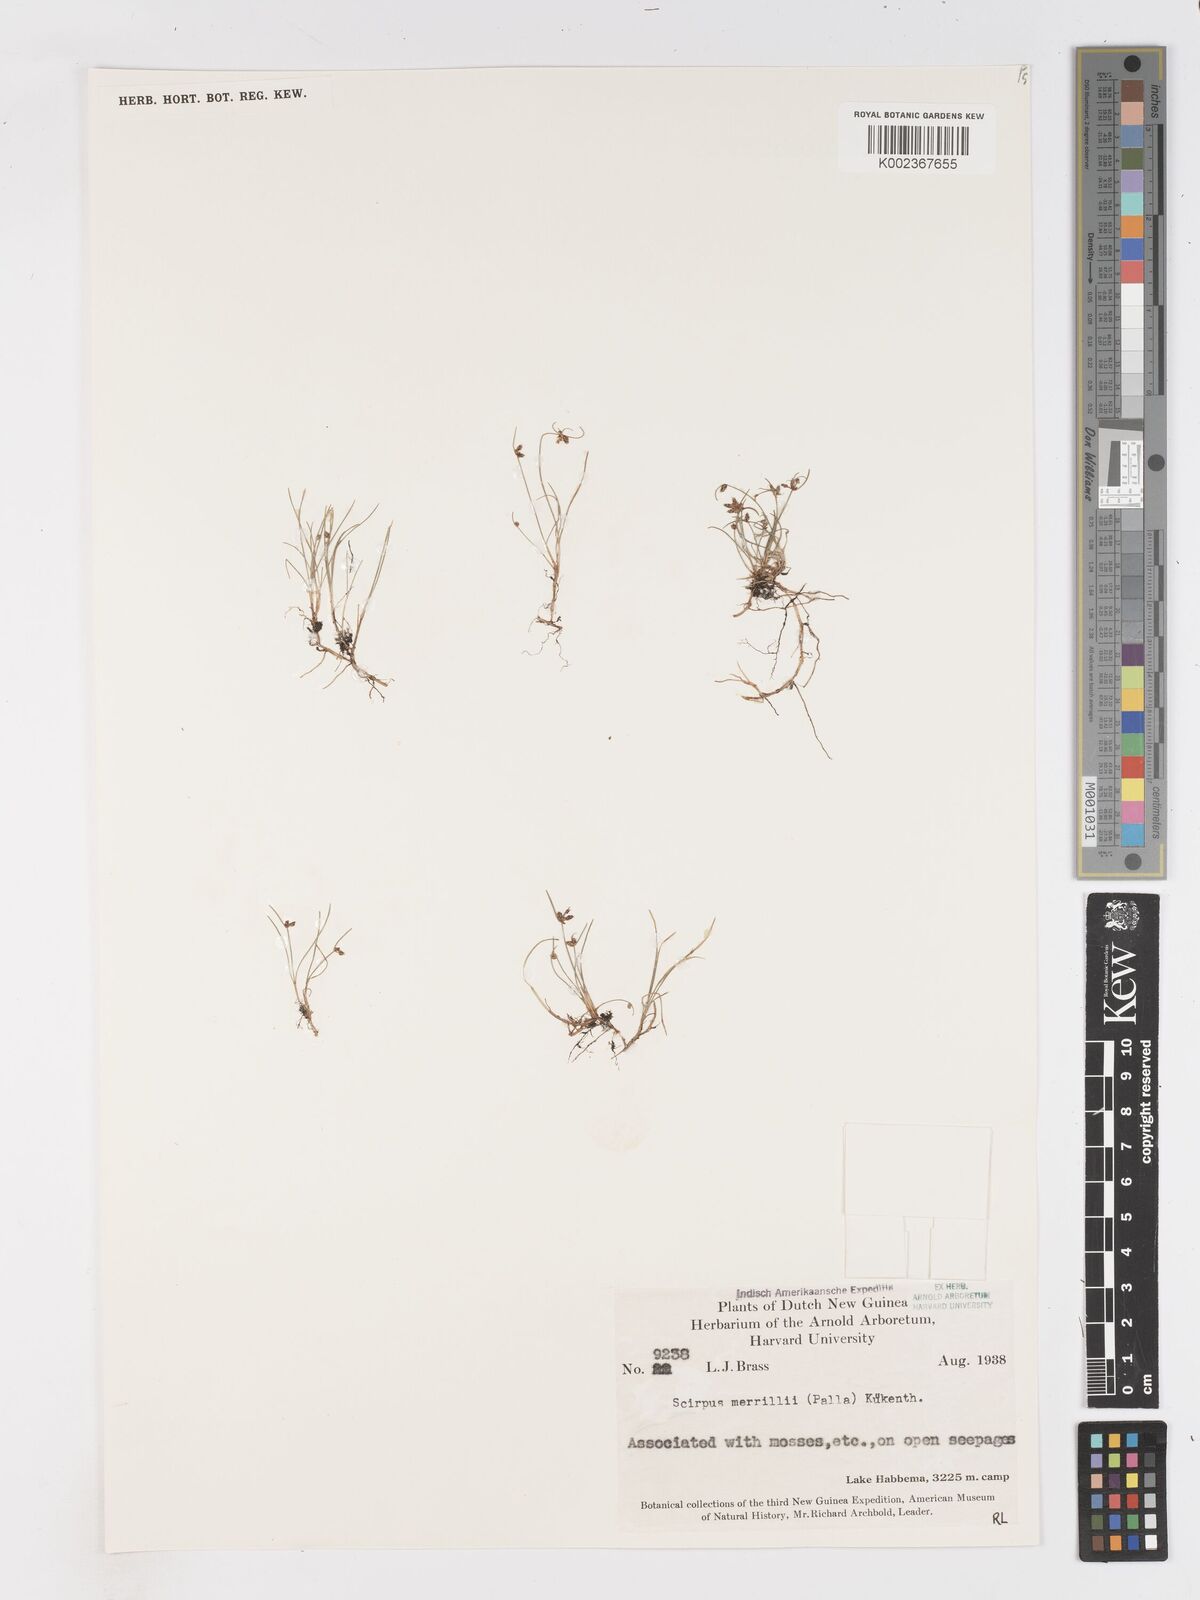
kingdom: Plantae
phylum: Tracheophyta
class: Liliopsida
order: Poales
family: Cyperaceae
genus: Isolepis
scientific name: Isolepis subtilissima
